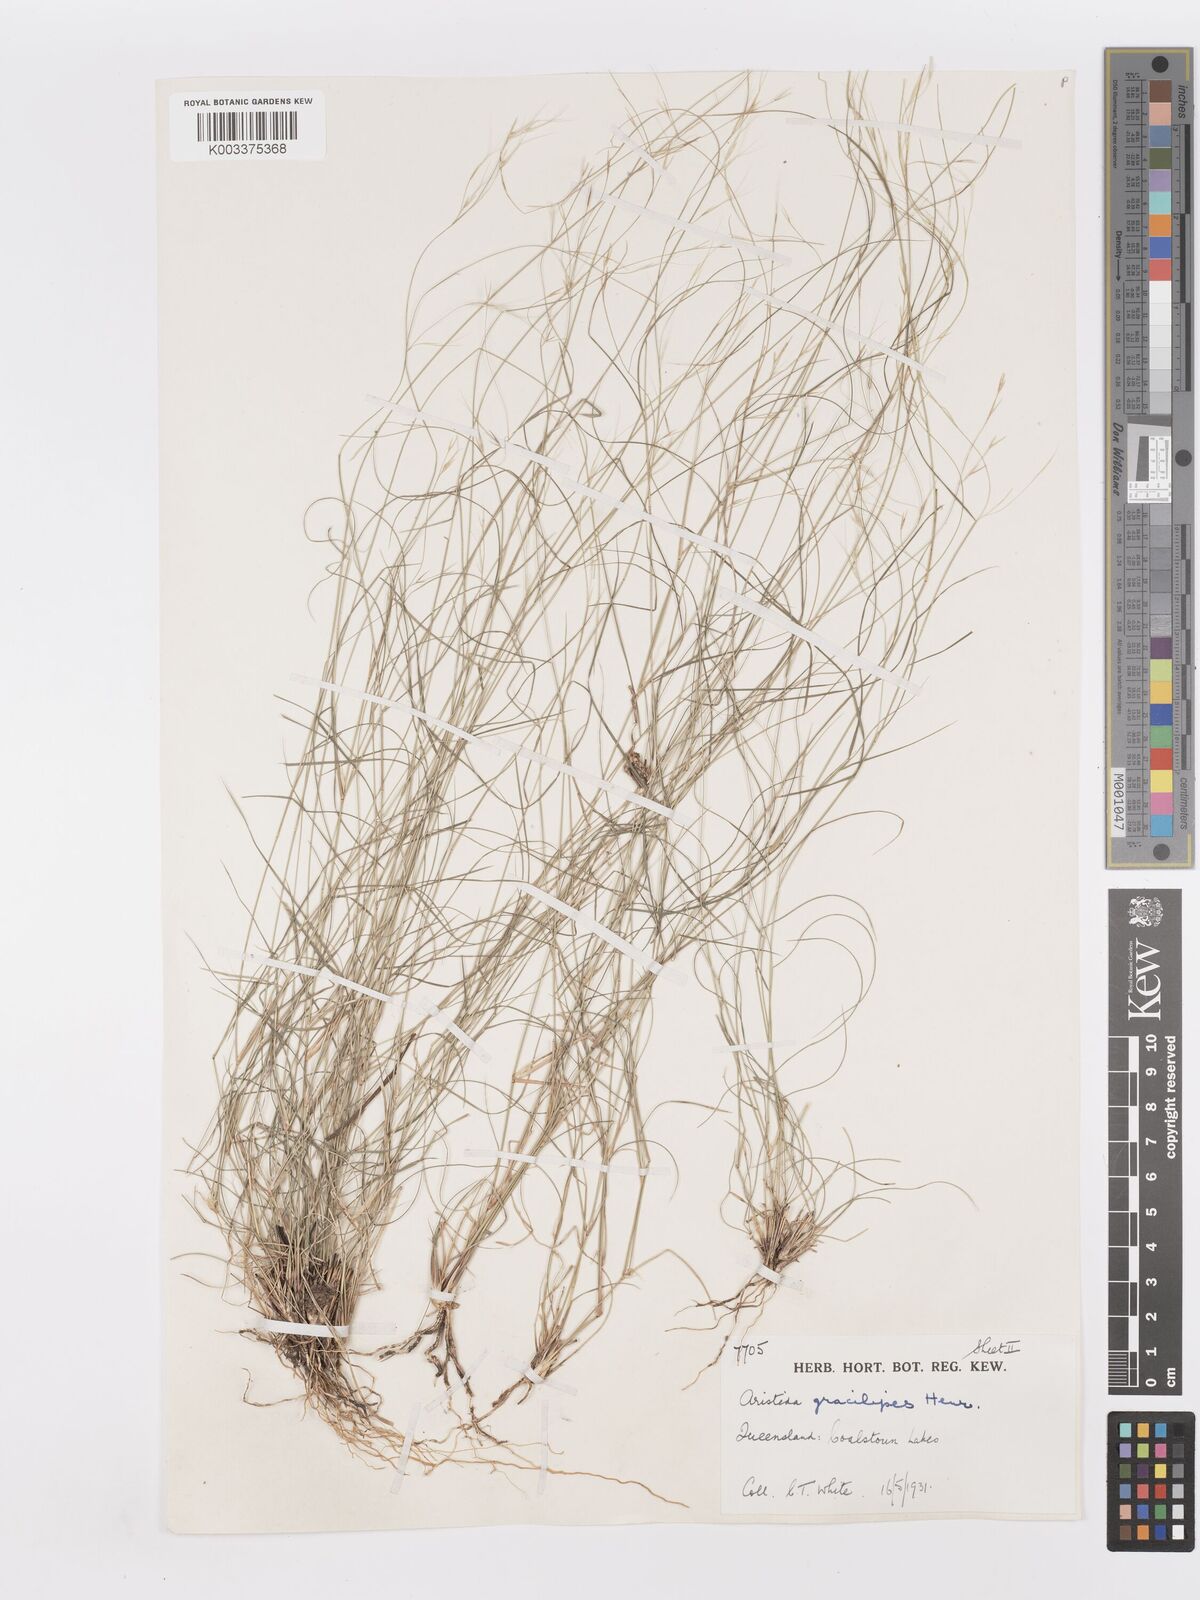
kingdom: Plantae
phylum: Tracheophyta
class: Liliopsida
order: Poales
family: Poaceae
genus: Aristida
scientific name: Aristida gracilipes
